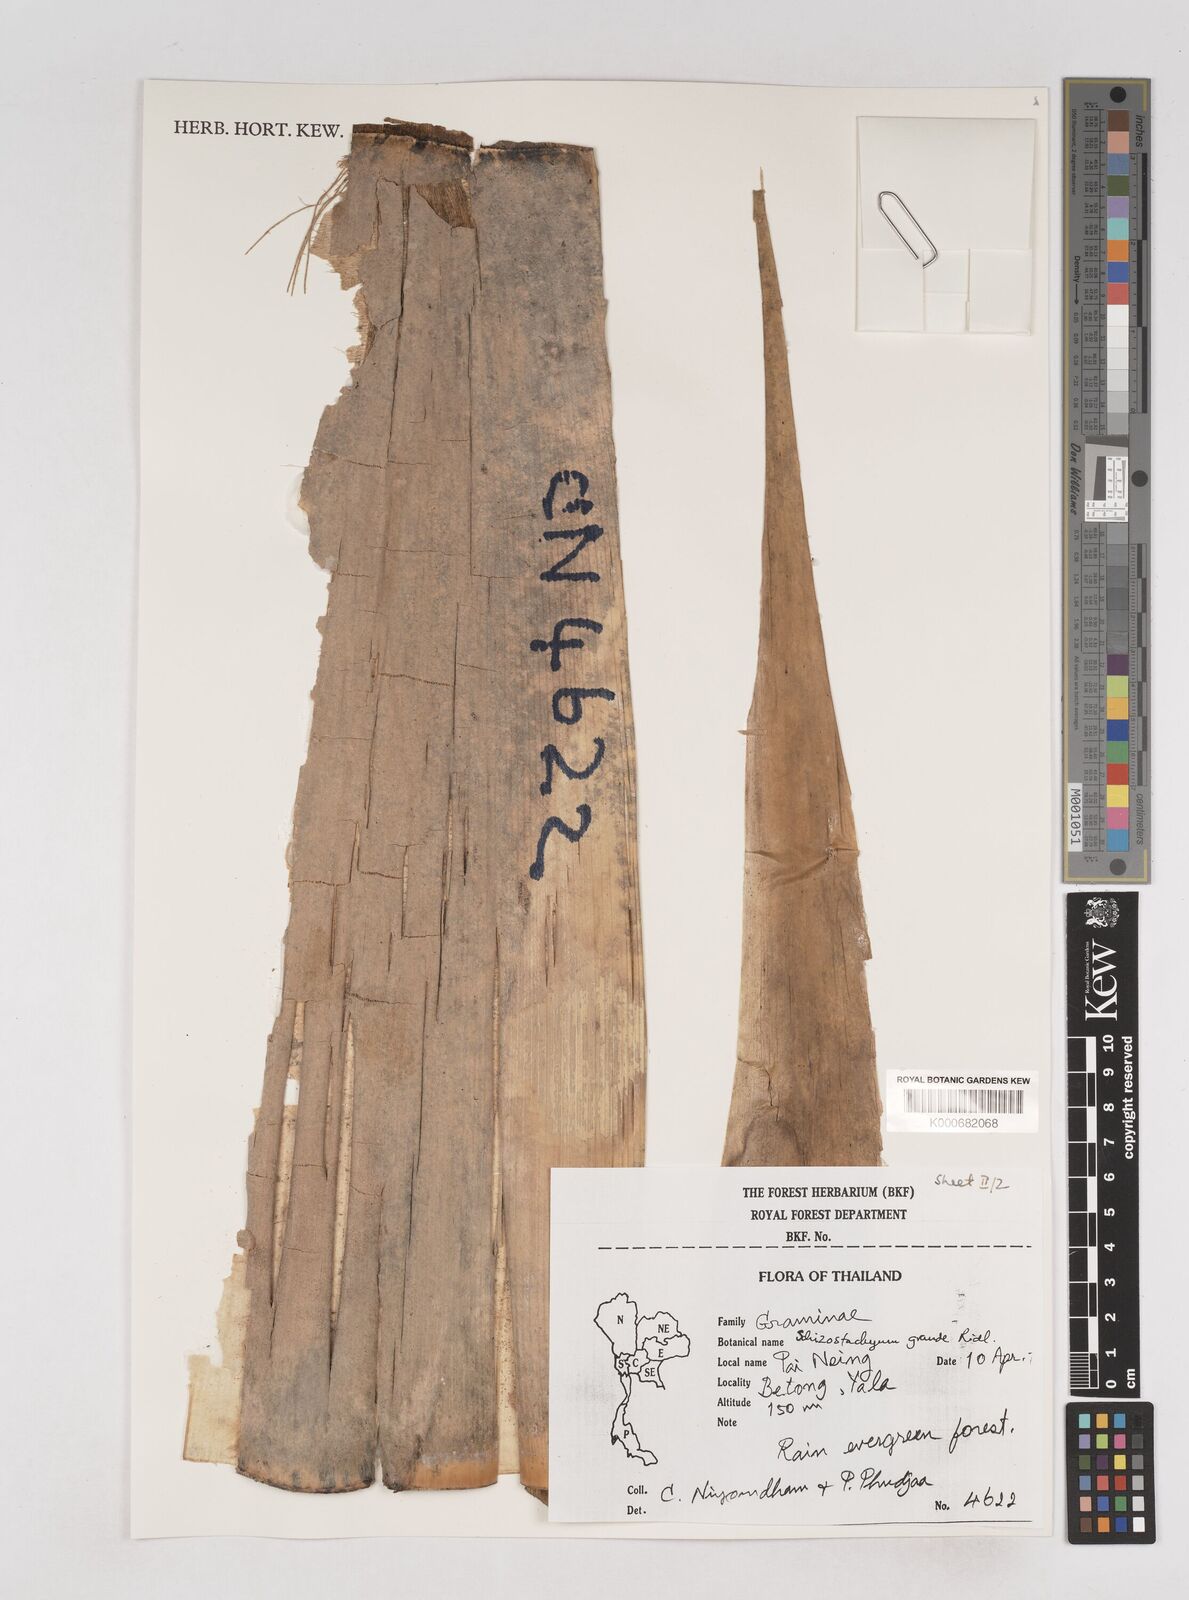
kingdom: Plantae
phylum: Tracheophyta
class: Liliopsida
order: Poales
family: Poaceae
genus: Schizostachyum
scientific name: Schizostachyum grande
